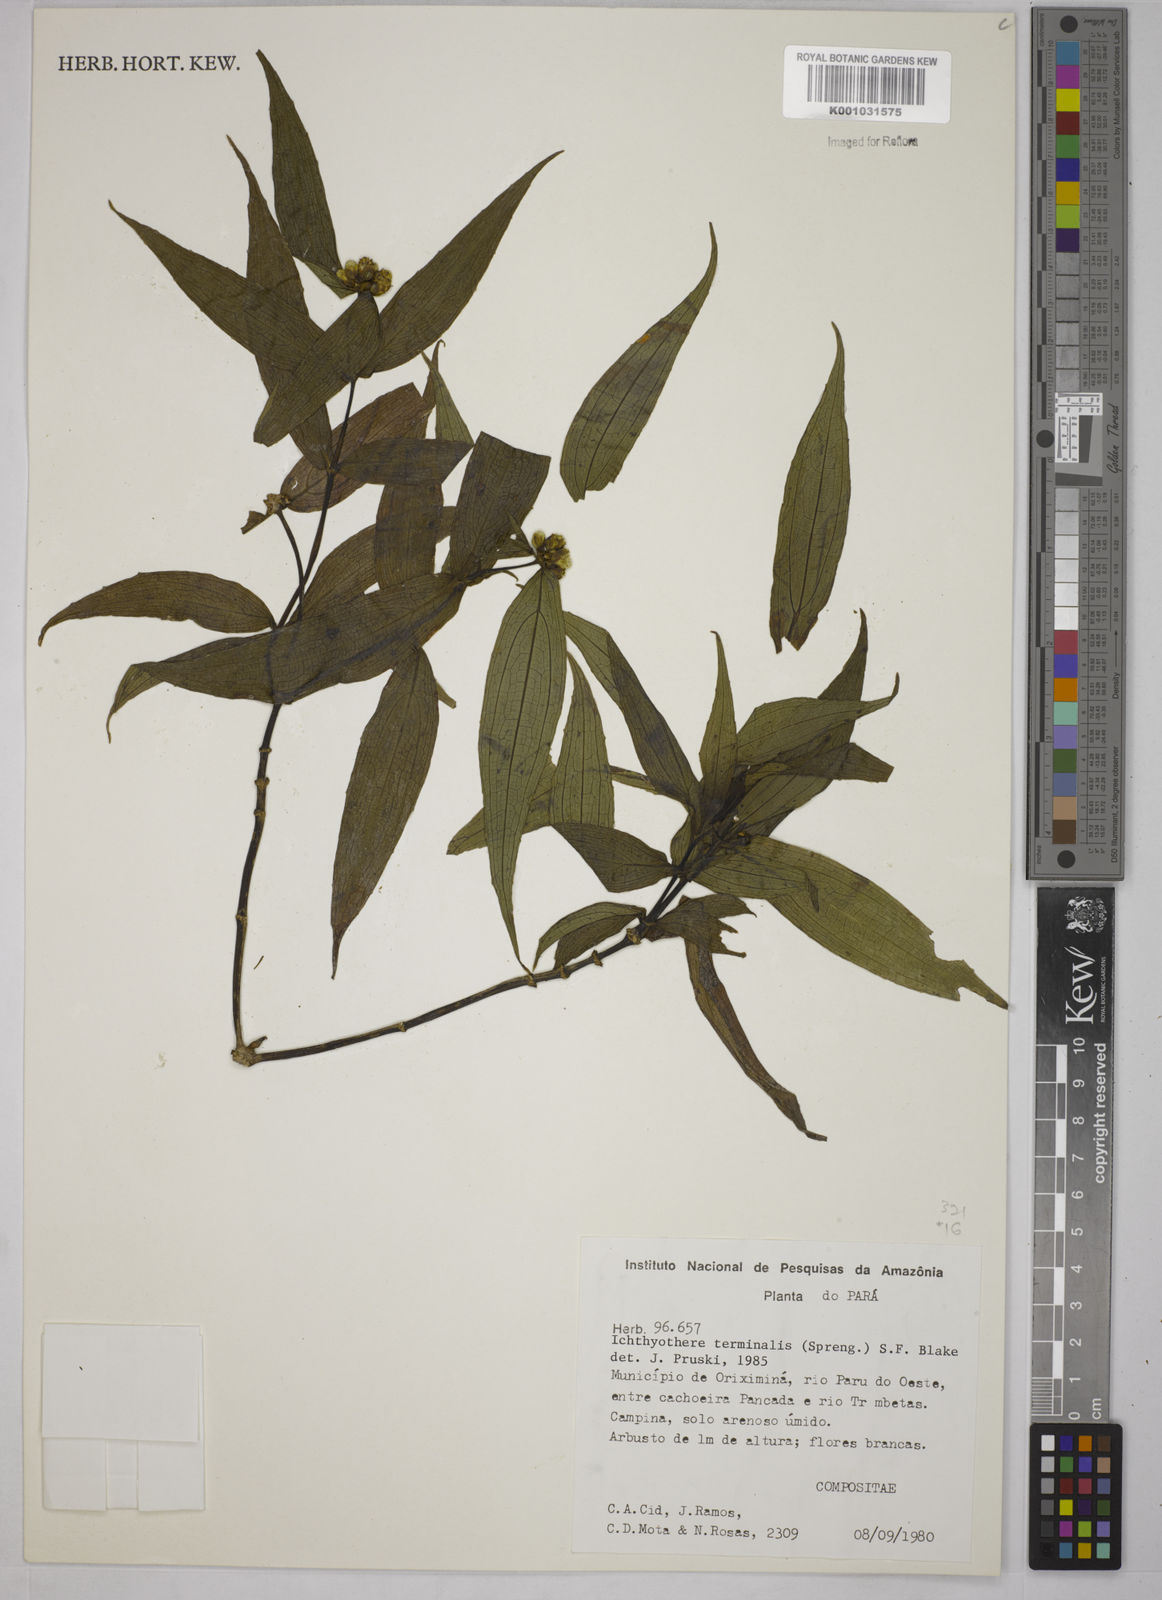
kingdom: Plantae
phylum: Tracheophyta
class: Magnoliopsida
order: Asterales
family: Asteraceae
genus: Ichthyothere
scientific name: Ichthyothere cunabi
